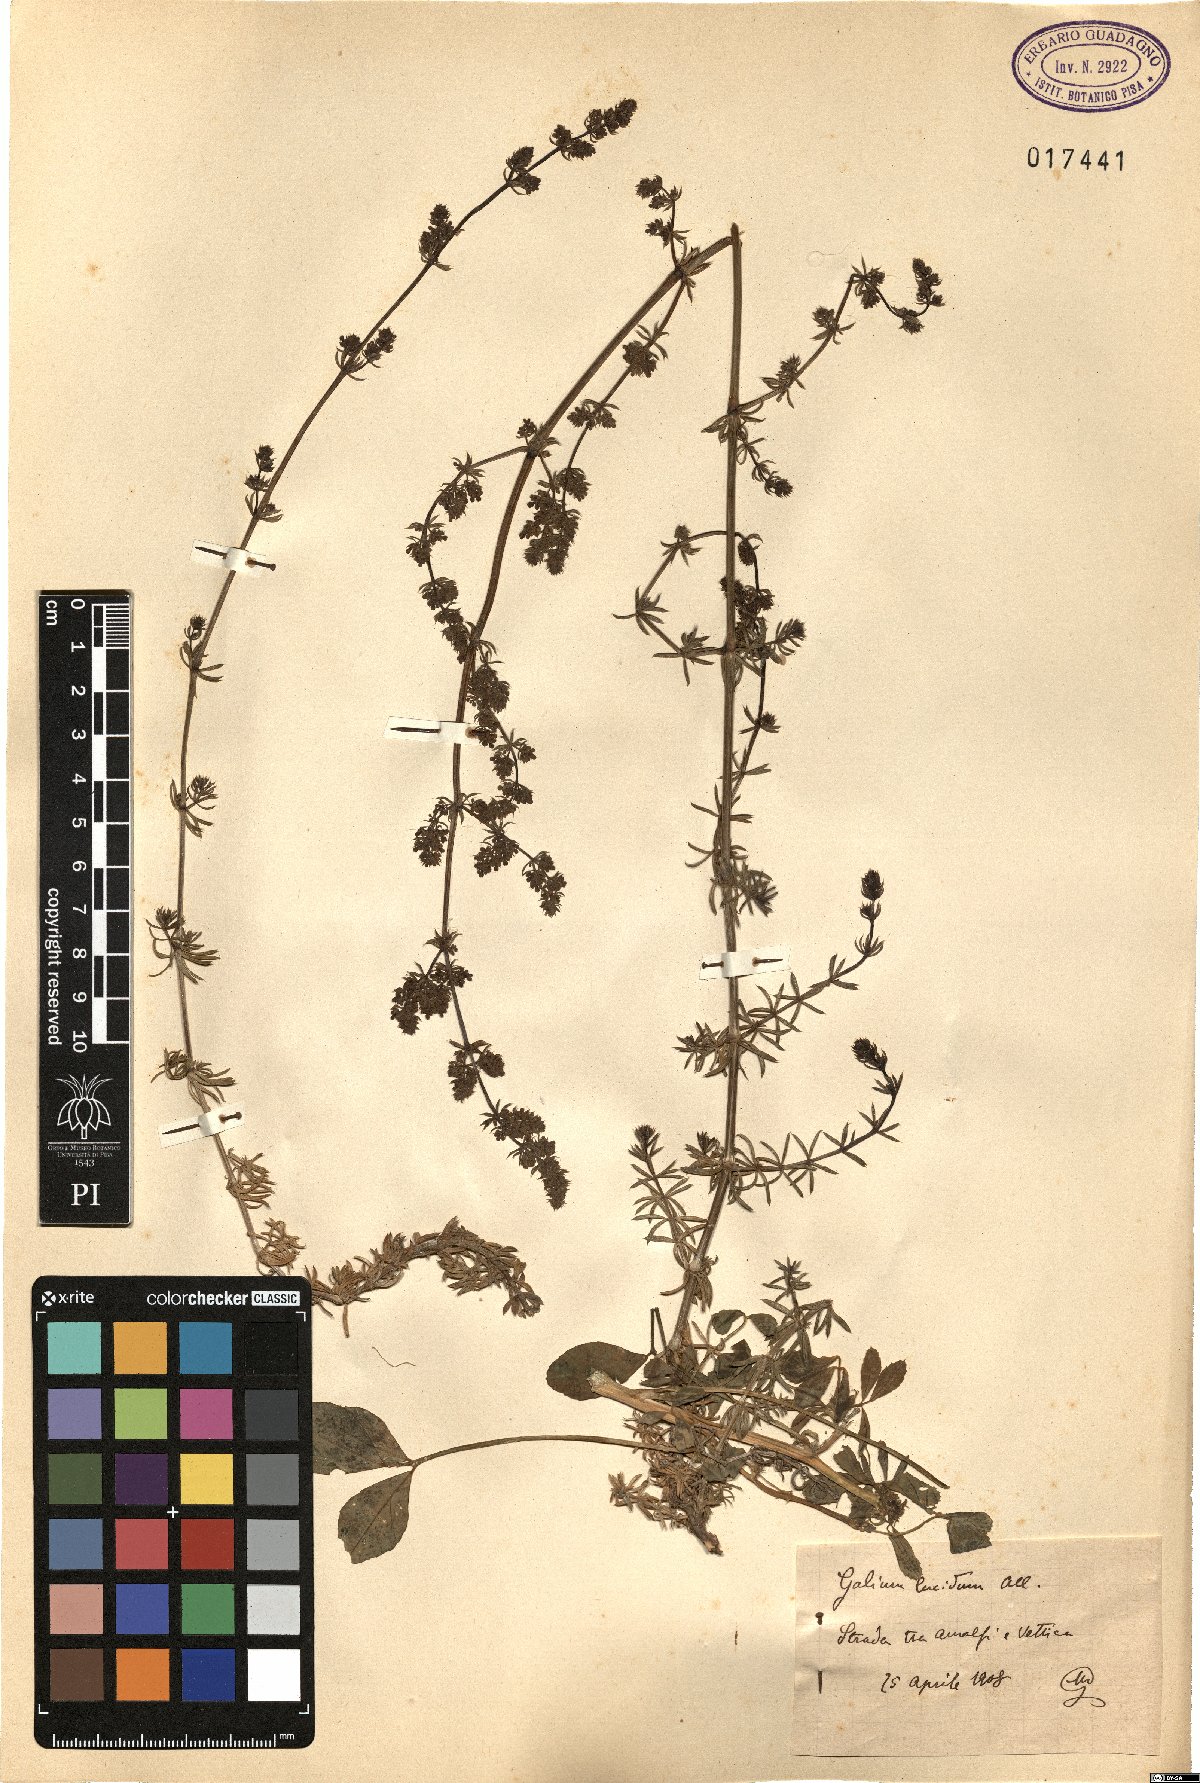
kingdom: Plantae
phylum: Tracheophyta
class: Magnoliopsida
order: Gentianales
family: Rubiaceae
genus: Galium
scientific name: Galium lucidum
